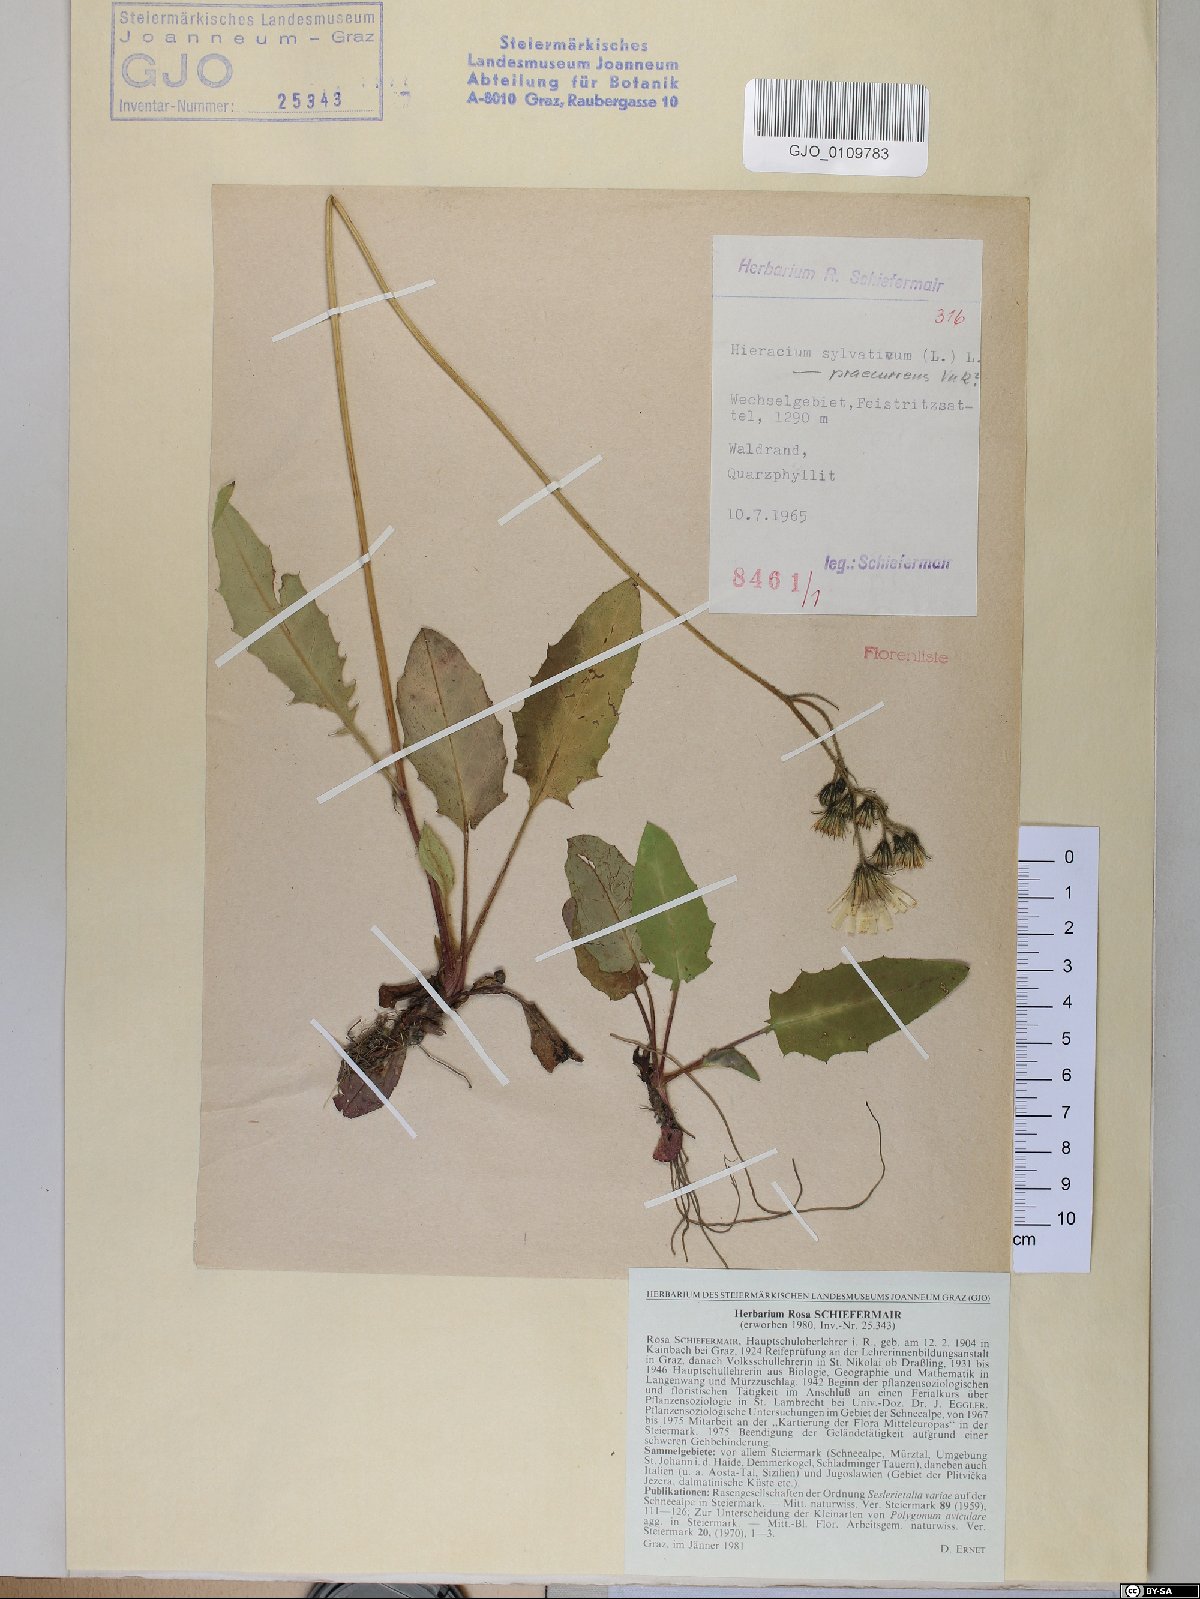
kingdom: Plantae
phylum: Tracheophyta
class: Magnoliopsida
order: Asterales
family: Asteraceae
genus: Hieracium
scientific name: Hieracium rotundatum
